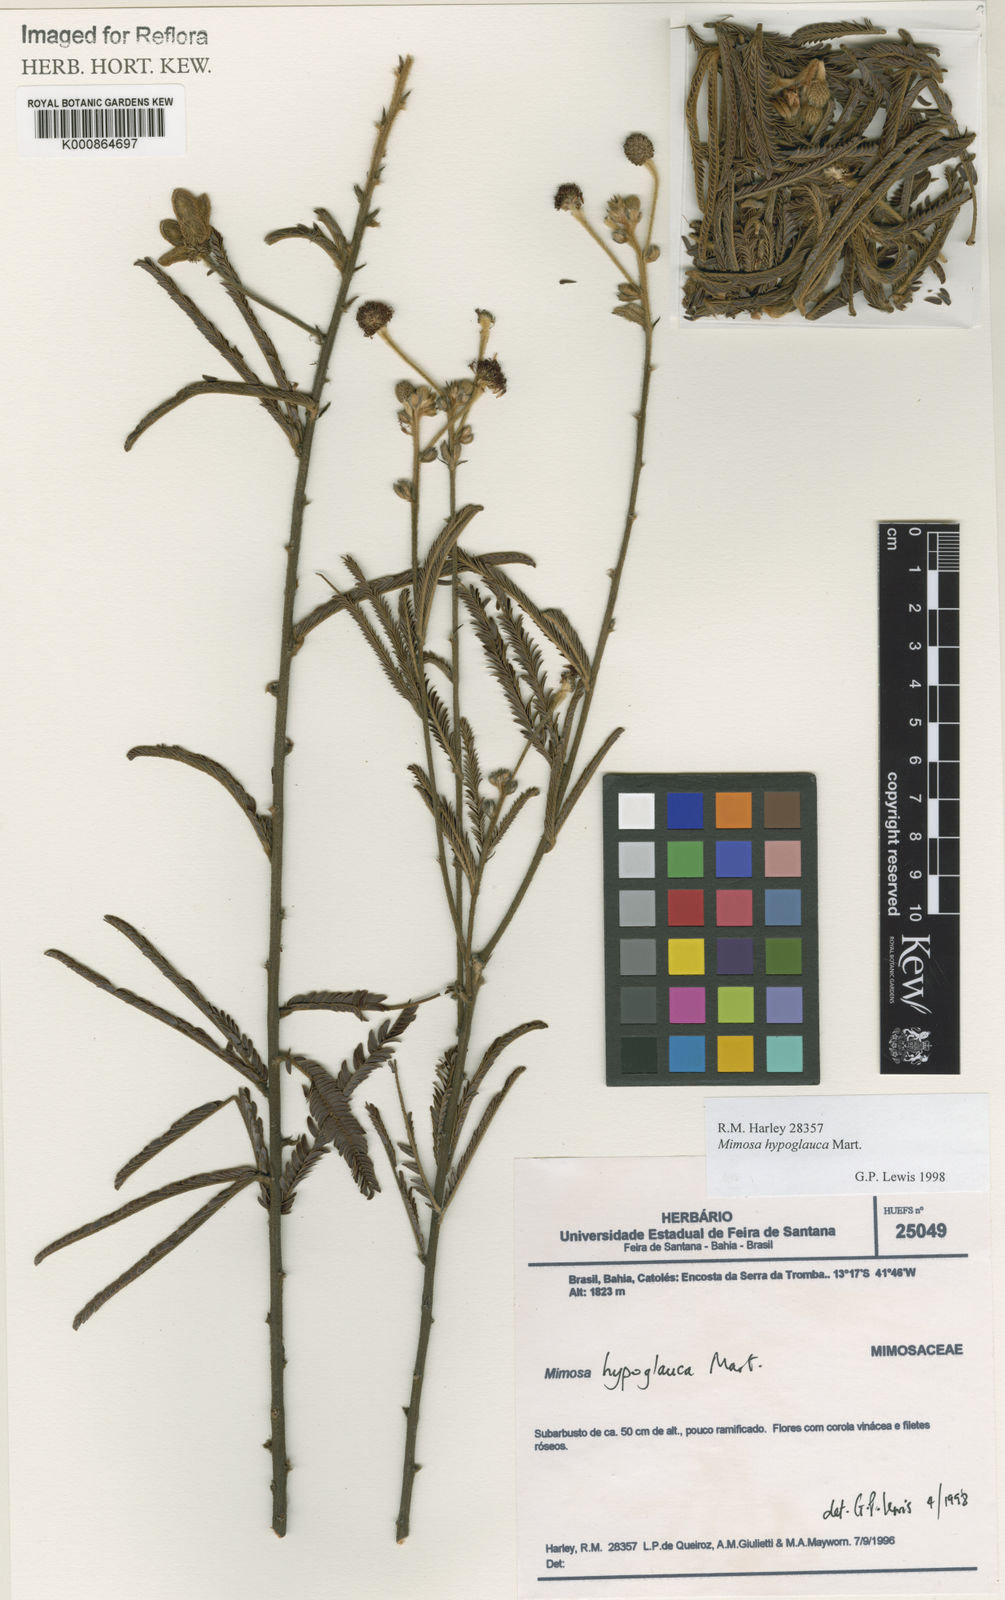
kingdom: Plantae
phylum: Tracheophyta
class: Magnoliopsida
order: Fabales
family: Fabaceae
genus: Mimosa
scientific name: Mimosa hypoglauca
